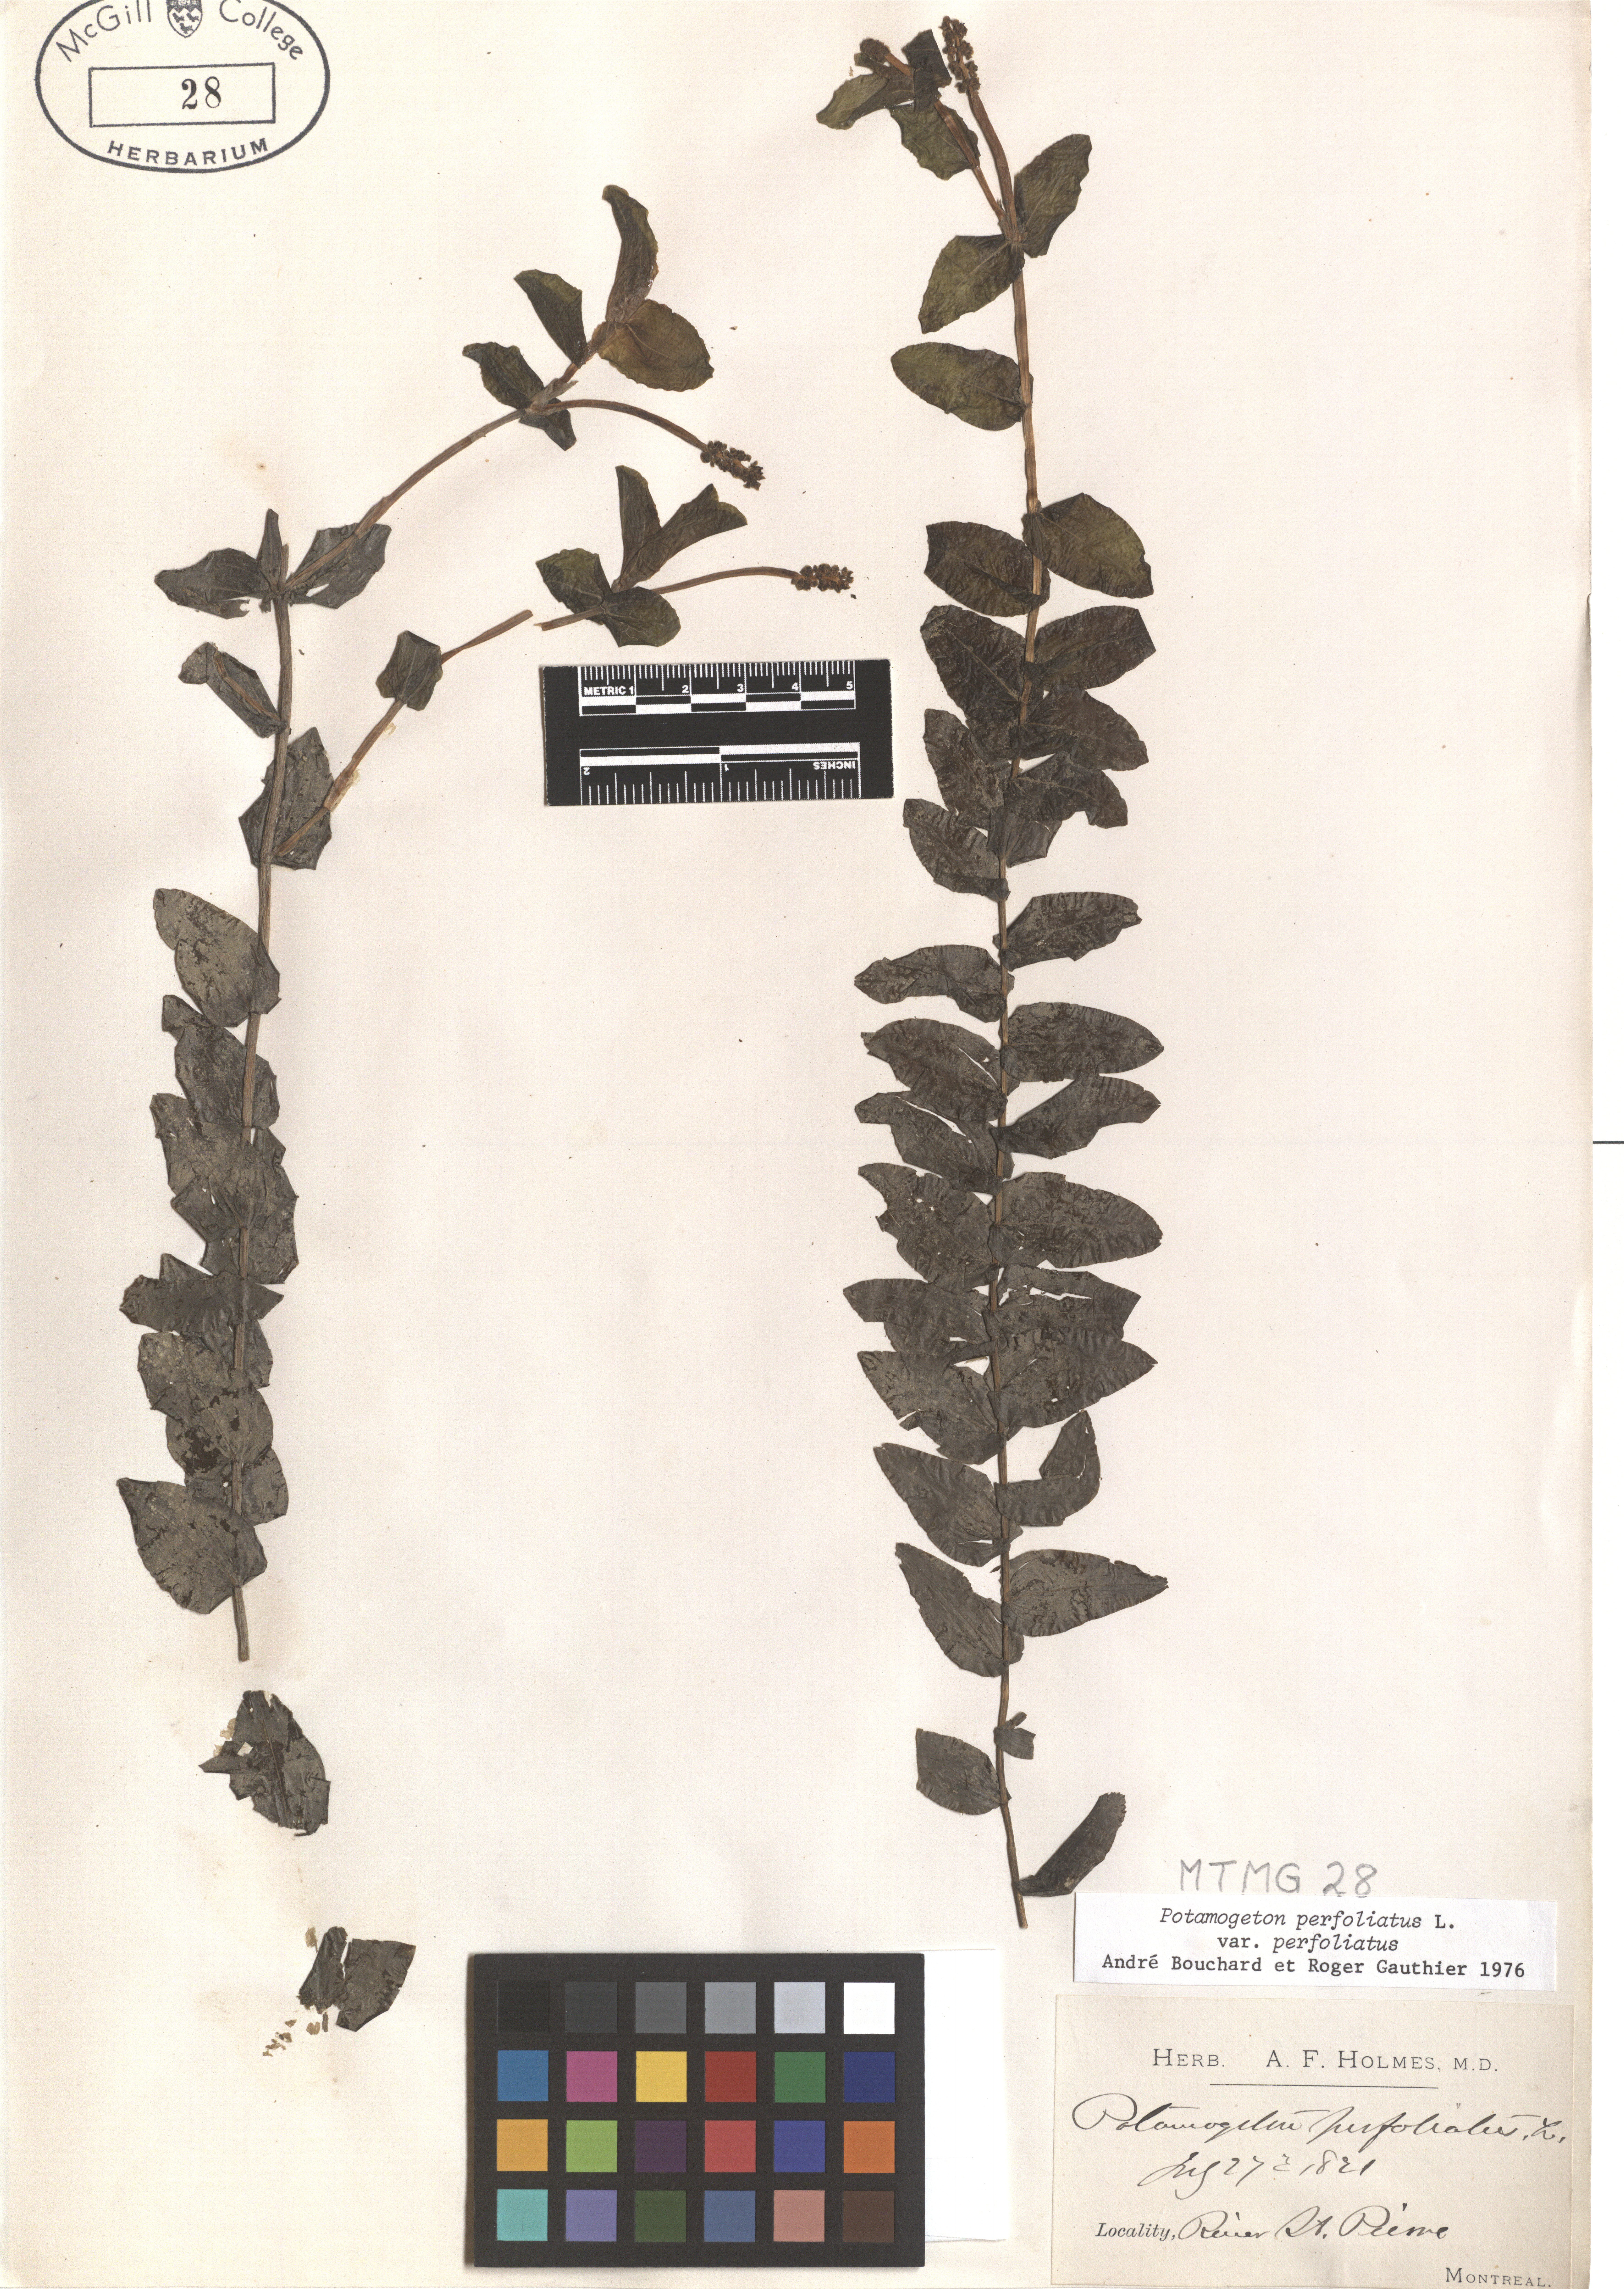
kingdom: Plantae
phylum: Tracheophyta
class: Liliopsida
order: Alismatales
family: Potamogetonaceae
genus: Potamogeton
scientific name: Potamogeton perfoliatus
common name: Perfoliate pondweed
